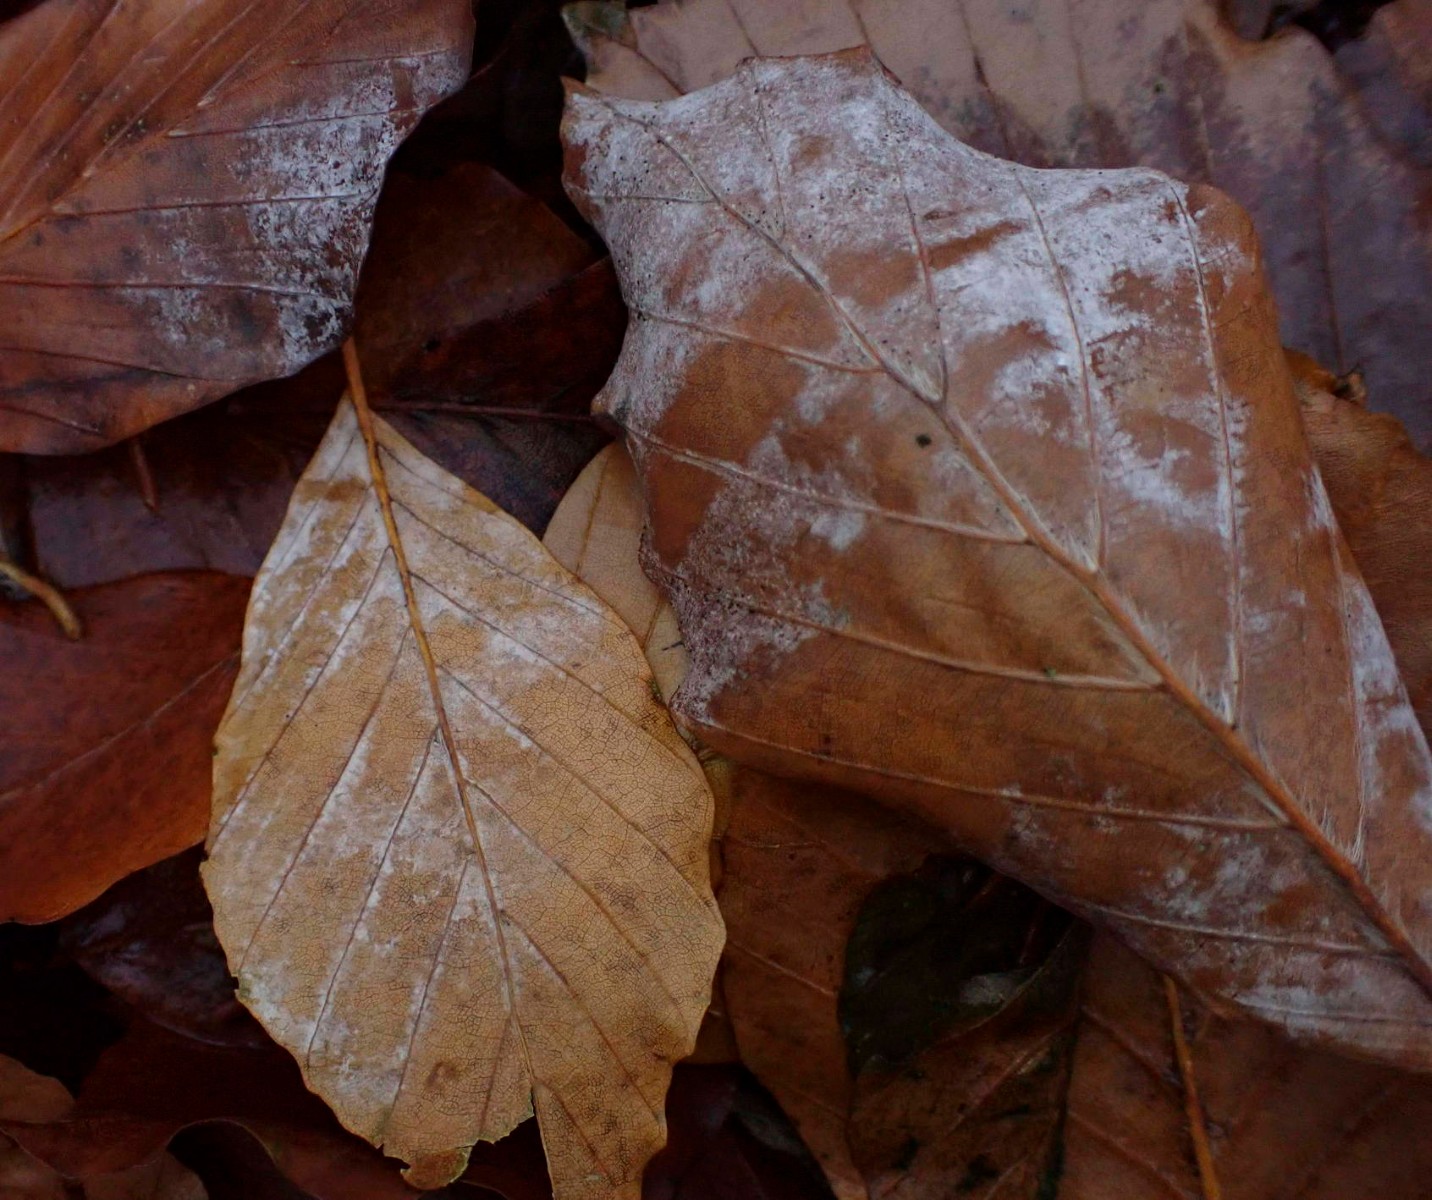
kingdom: Fungi
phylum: Ascomycota
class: Leotiomycetes
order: Helotiales
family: Erysiphaceae
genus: Phyllactinia
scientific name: Phyllactinia orbicularis
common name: bøge-meldug
